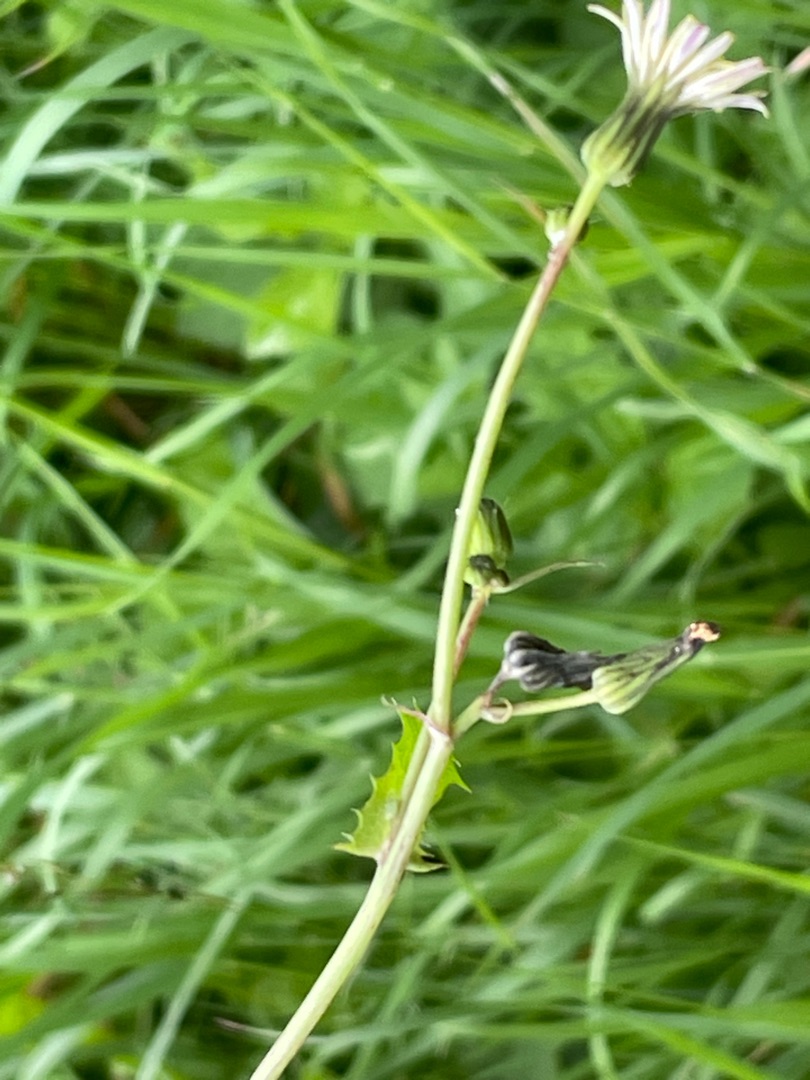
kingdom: Plantae
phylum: Tracheophyta
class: Magnoliopsida
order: Asterales
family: Asteraceae
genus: Sonchus
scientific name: Sonchus oleraceus
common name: Almindelig svinemælk
